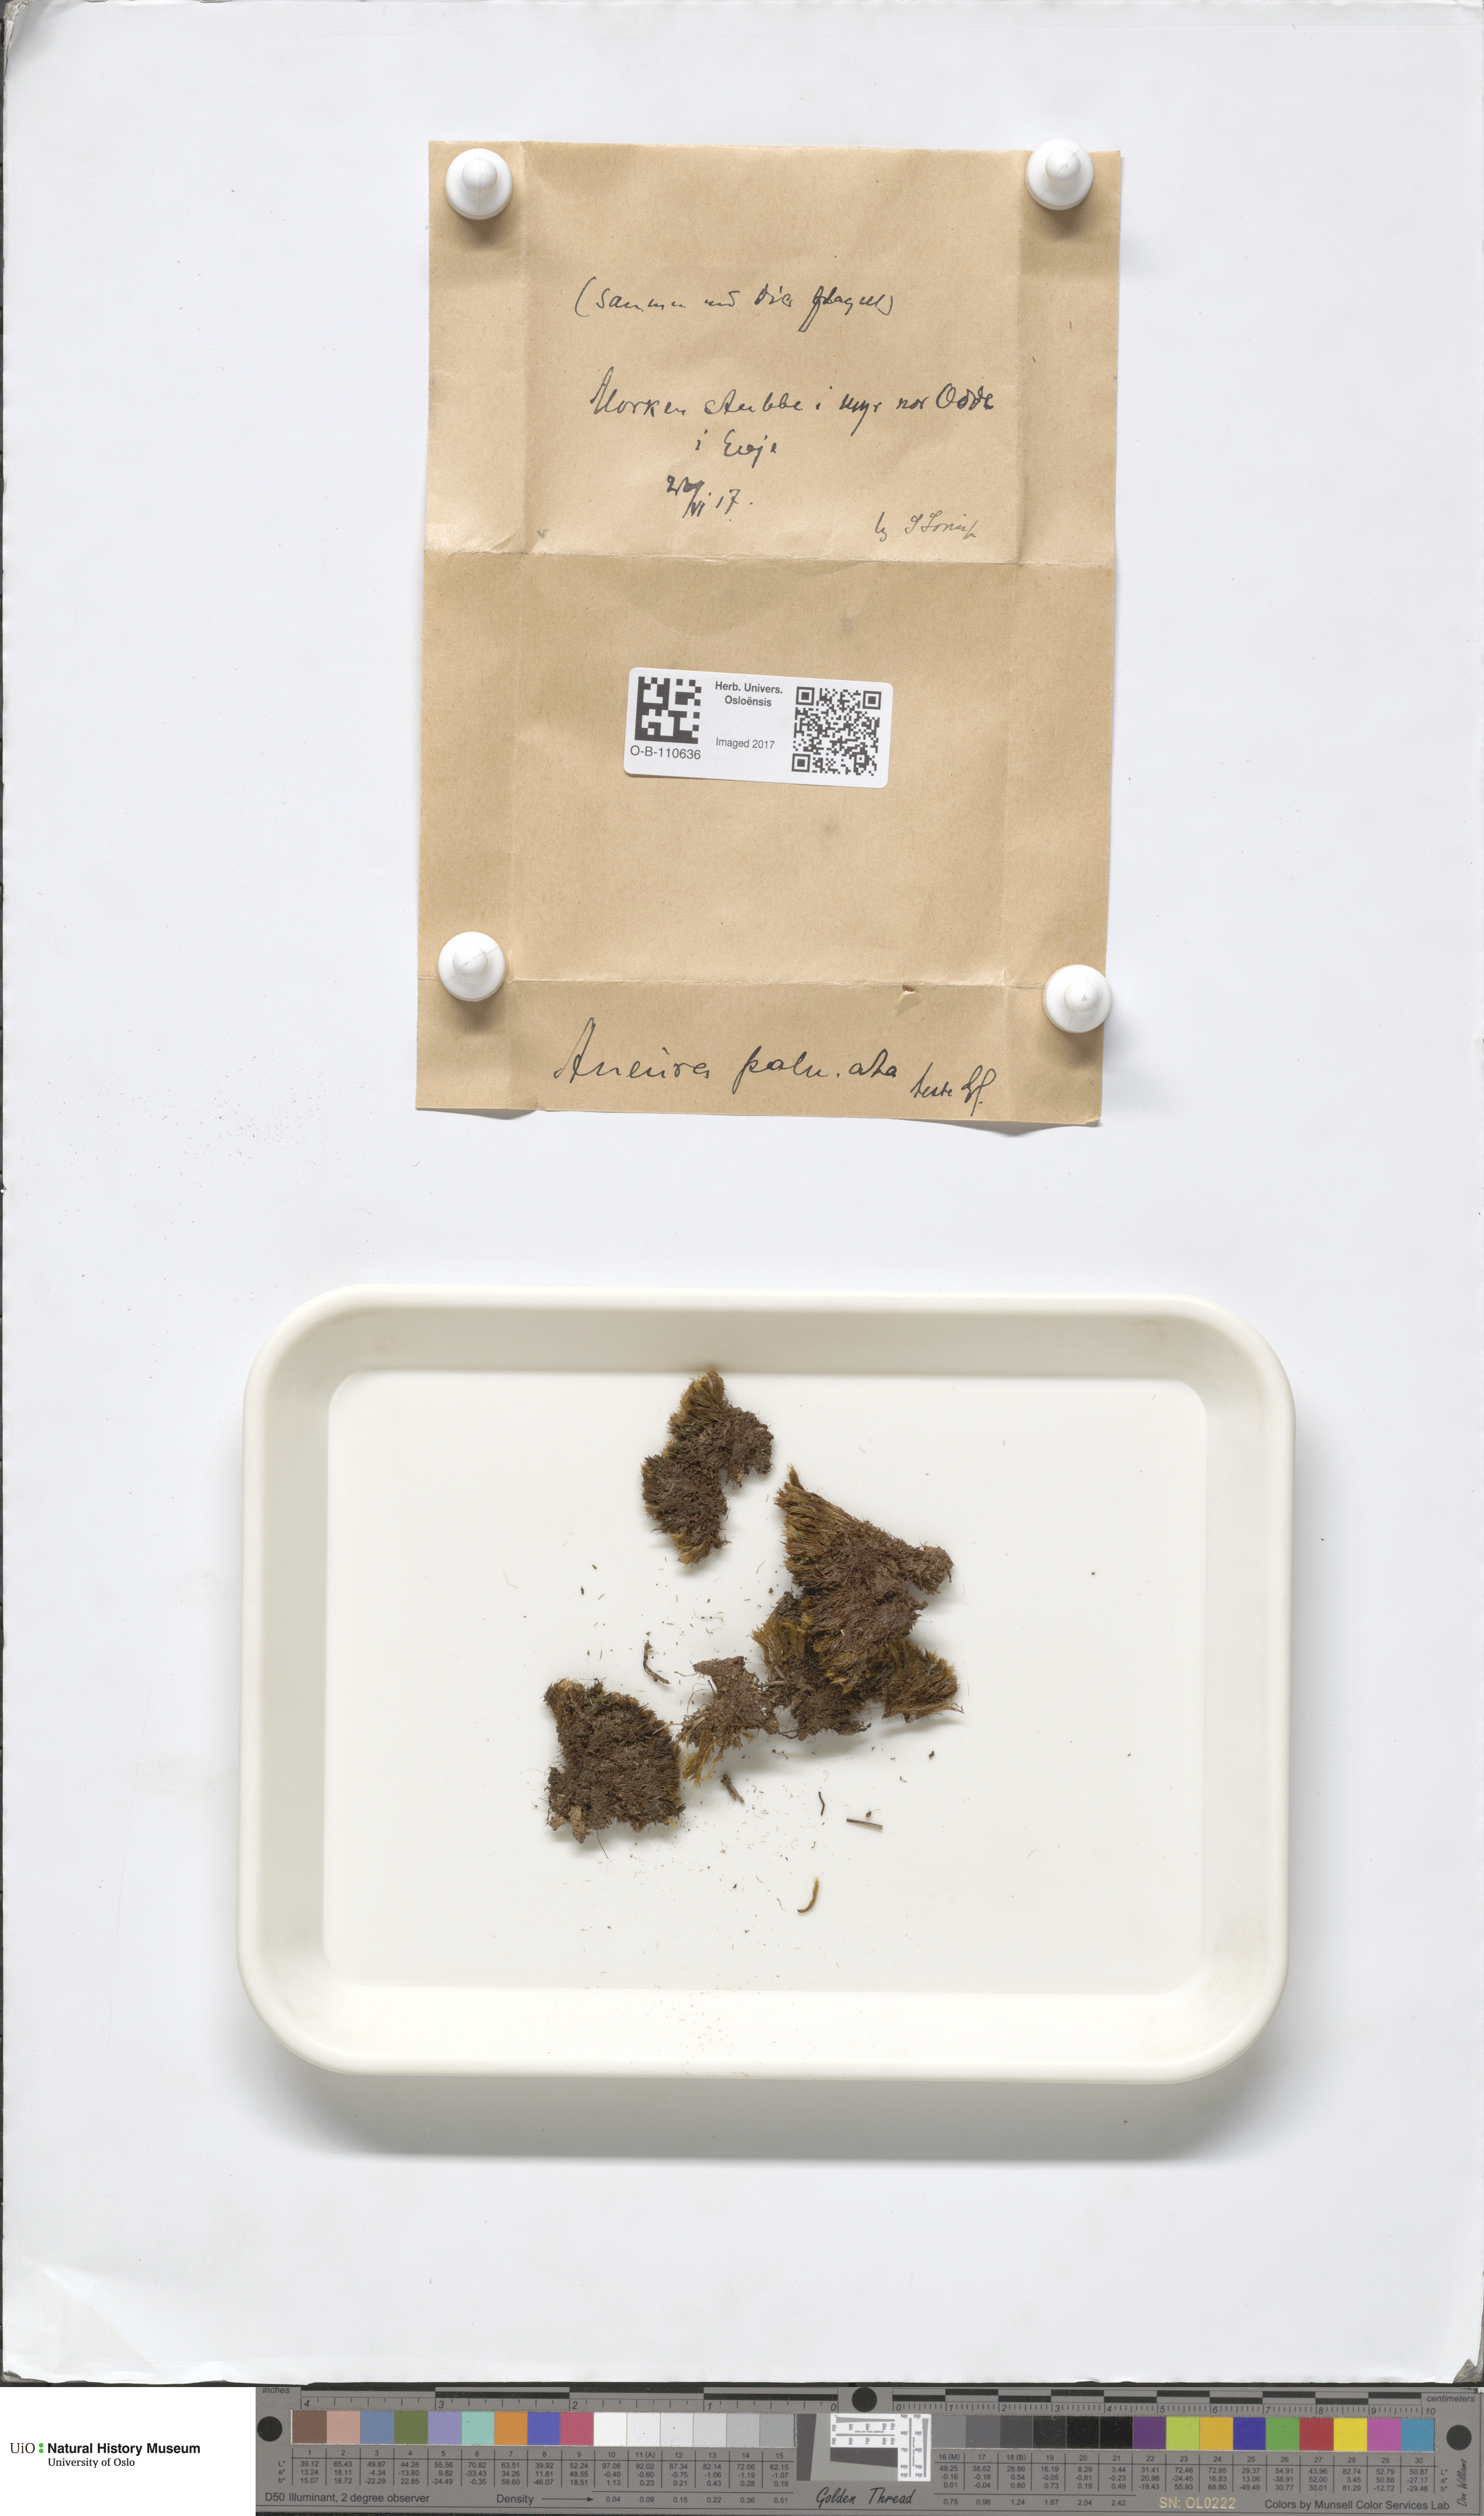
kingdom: Plantae
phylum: Marchantiophyta
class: Jungermanniopsida
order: Metzgeriales
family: Aneuraceae
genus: Riccardia
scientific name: Riccardia palmata
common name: Palmate germanderwort
